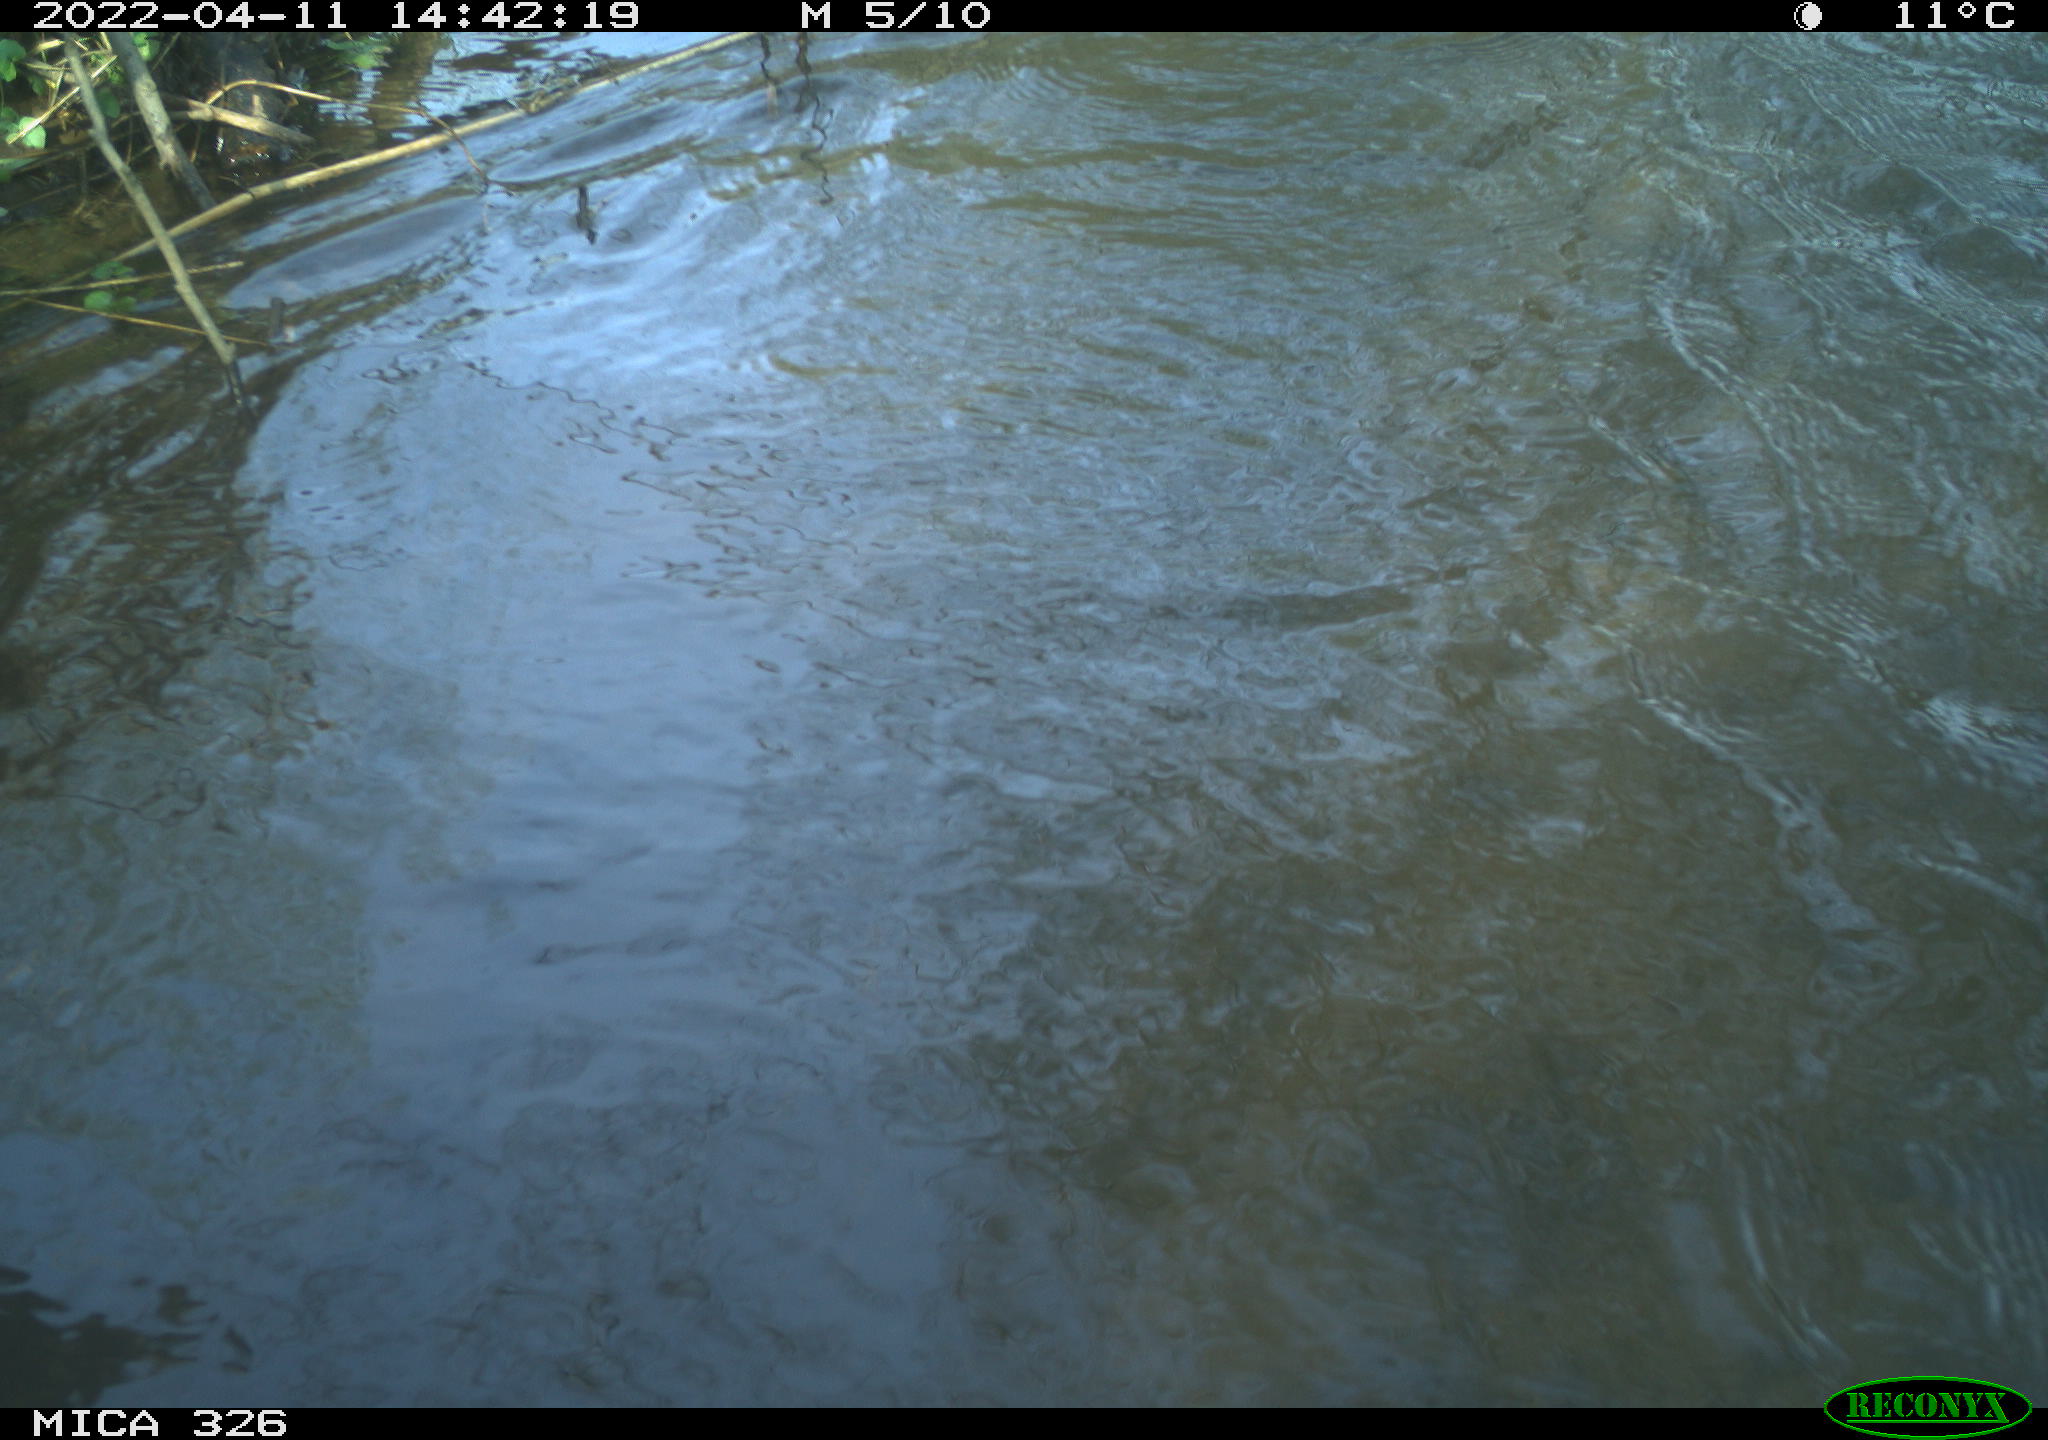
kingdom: Animalia
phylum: Chordata
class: Mammalia
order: Rodentia
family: Cricetidae
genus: Ondatra
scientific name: Ondatra zibethicus
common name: Muskrat
